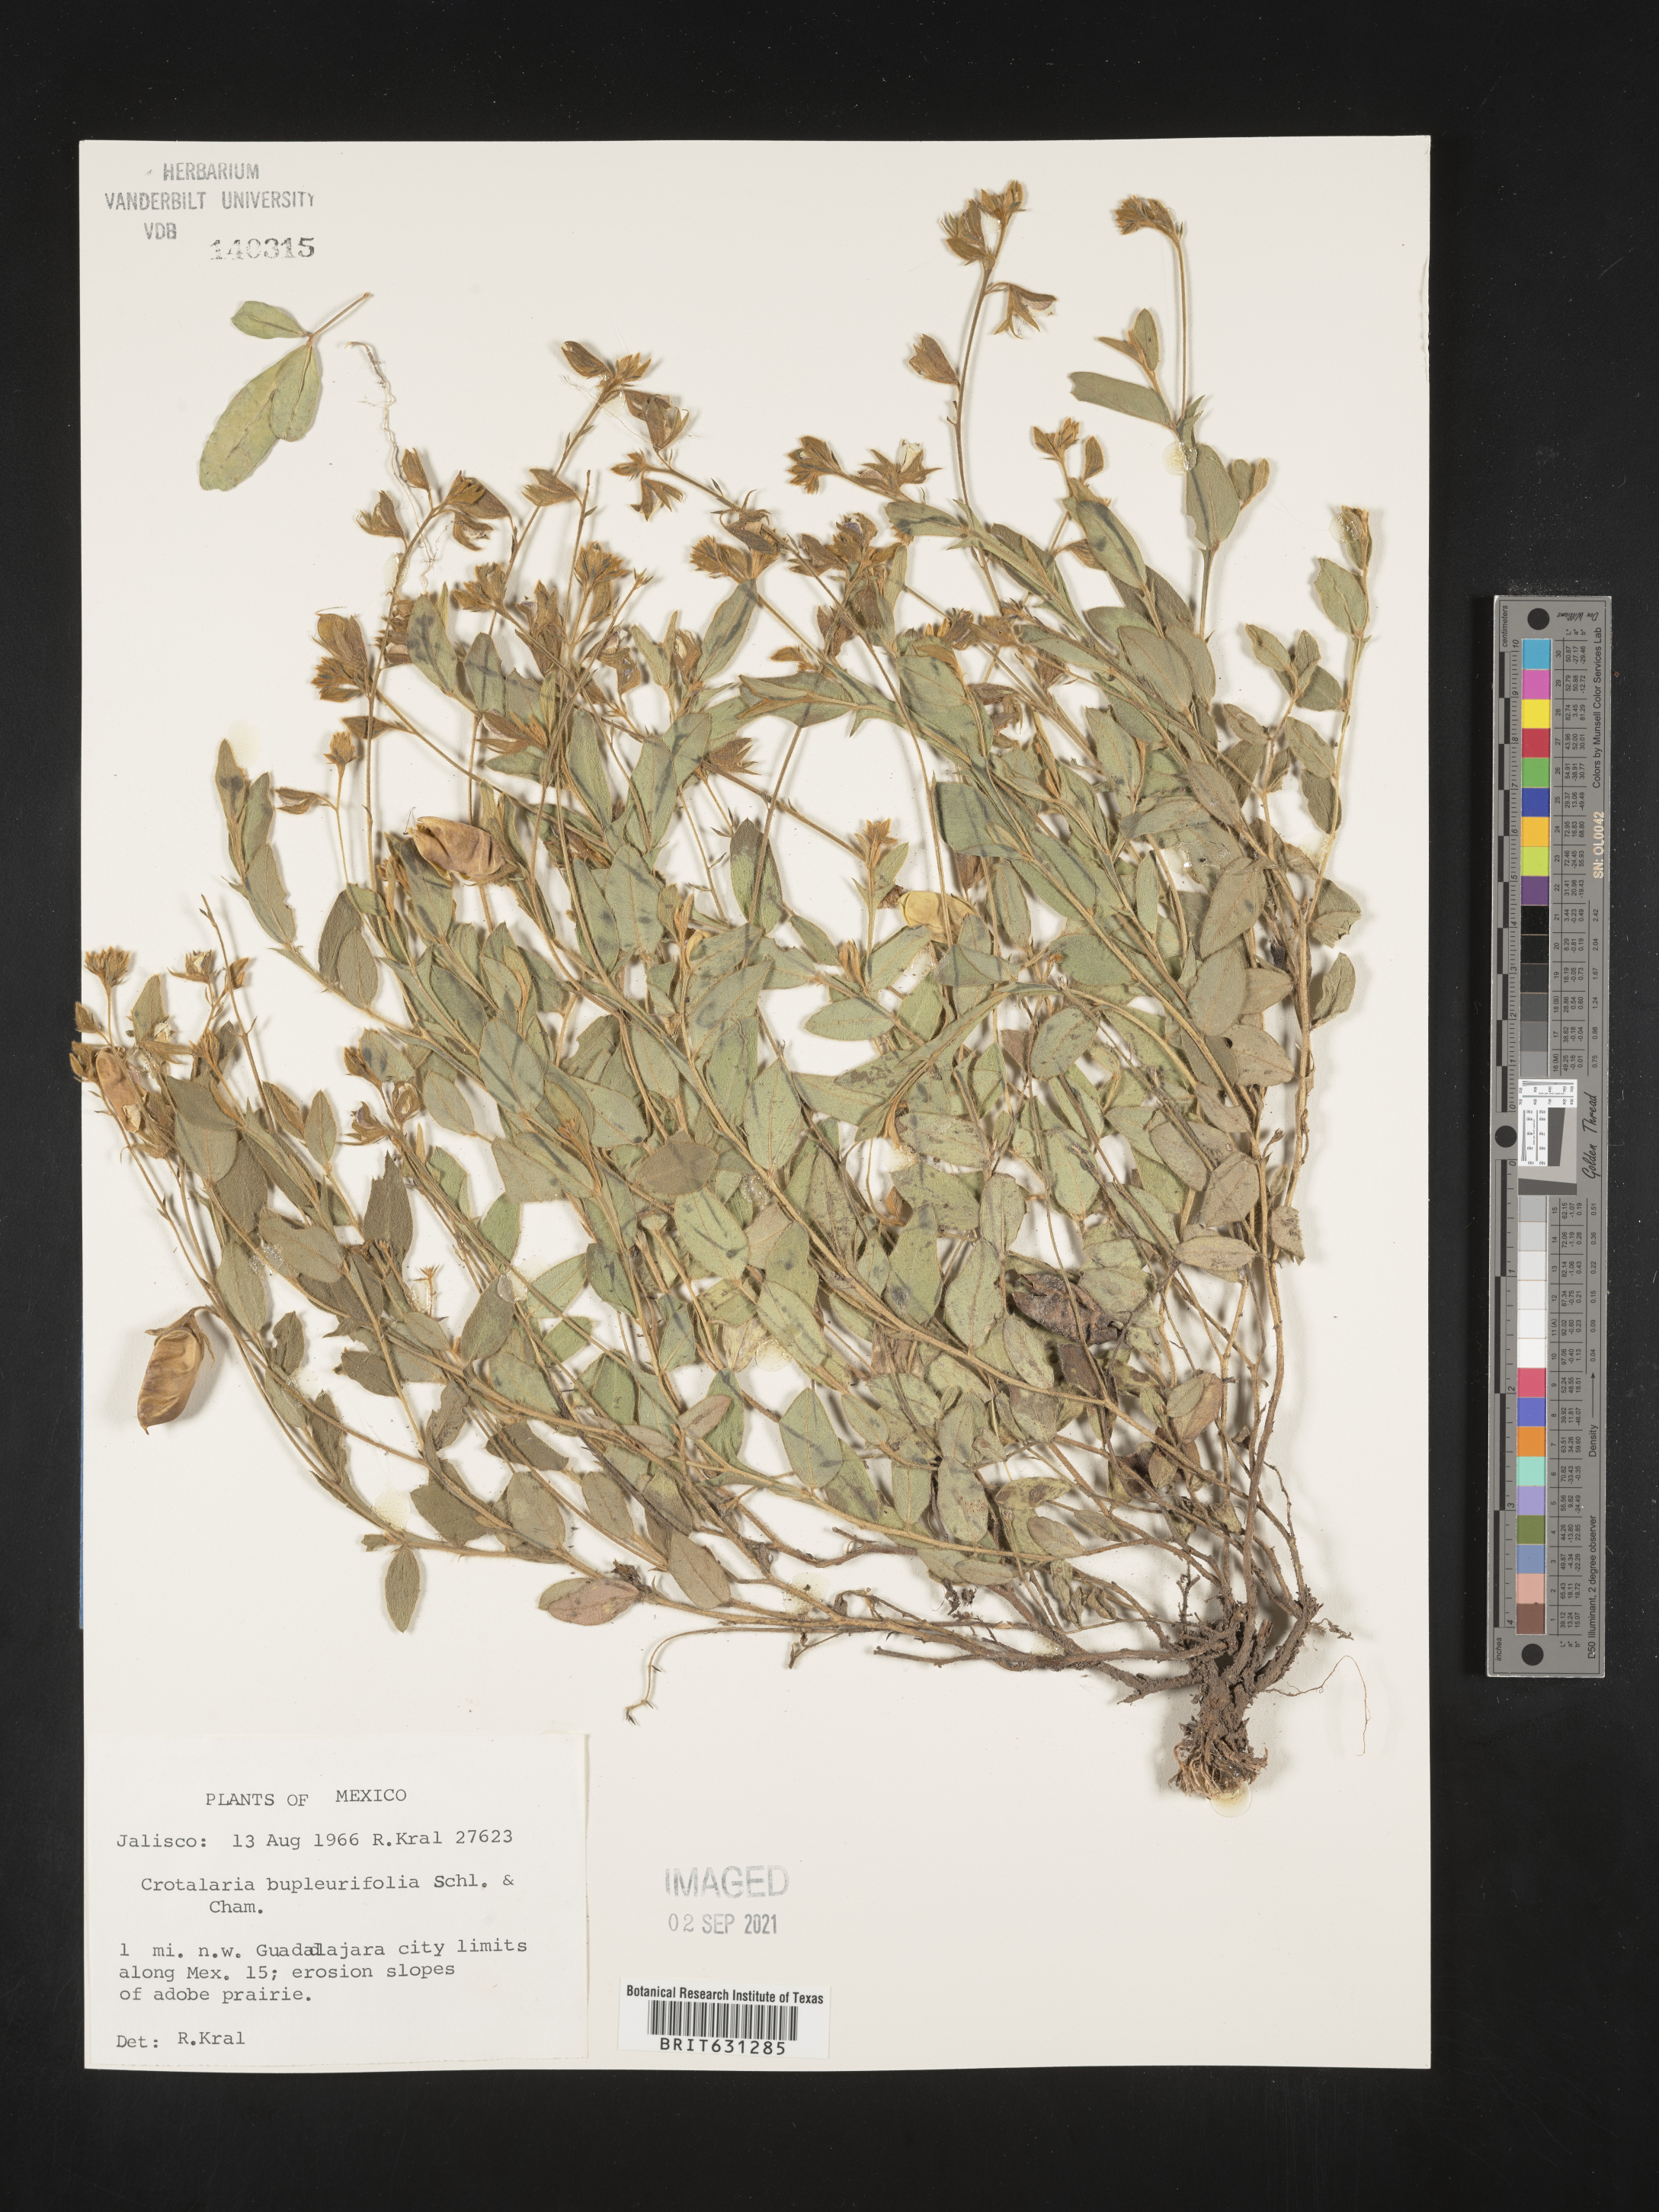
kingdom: Plantae
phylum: Tracheophyta
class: Magnoliopsida
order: Fabales
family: Fabaceae
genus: Crotalaria
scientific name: Crotalaria bupleurifolia
